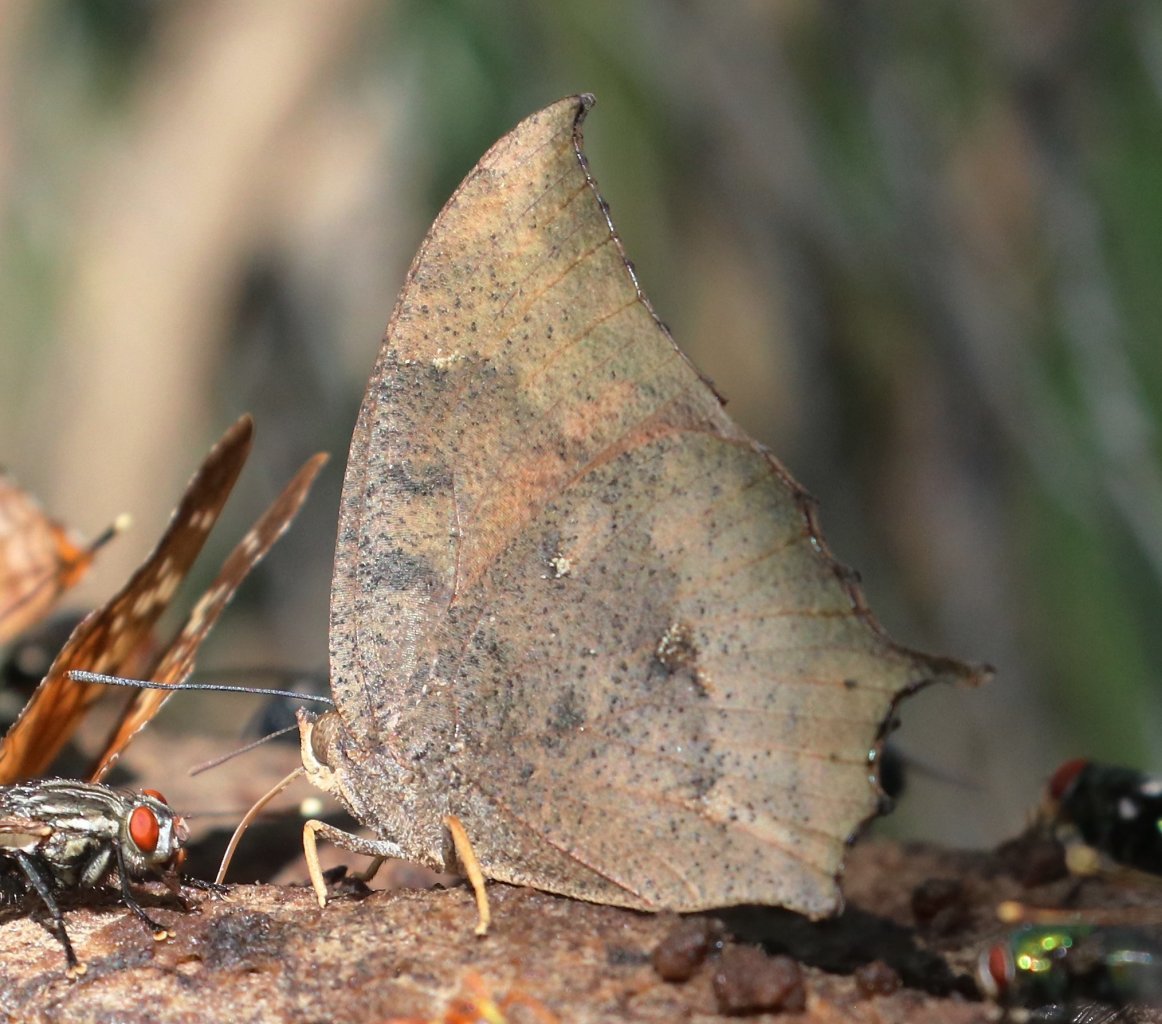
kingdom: Animalia
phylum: Arthropoda
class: Insecta
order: Lepidoptera
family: Nymphalidae
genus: Anaea
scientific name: Anaea aidea
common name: Tropical Leafwing
